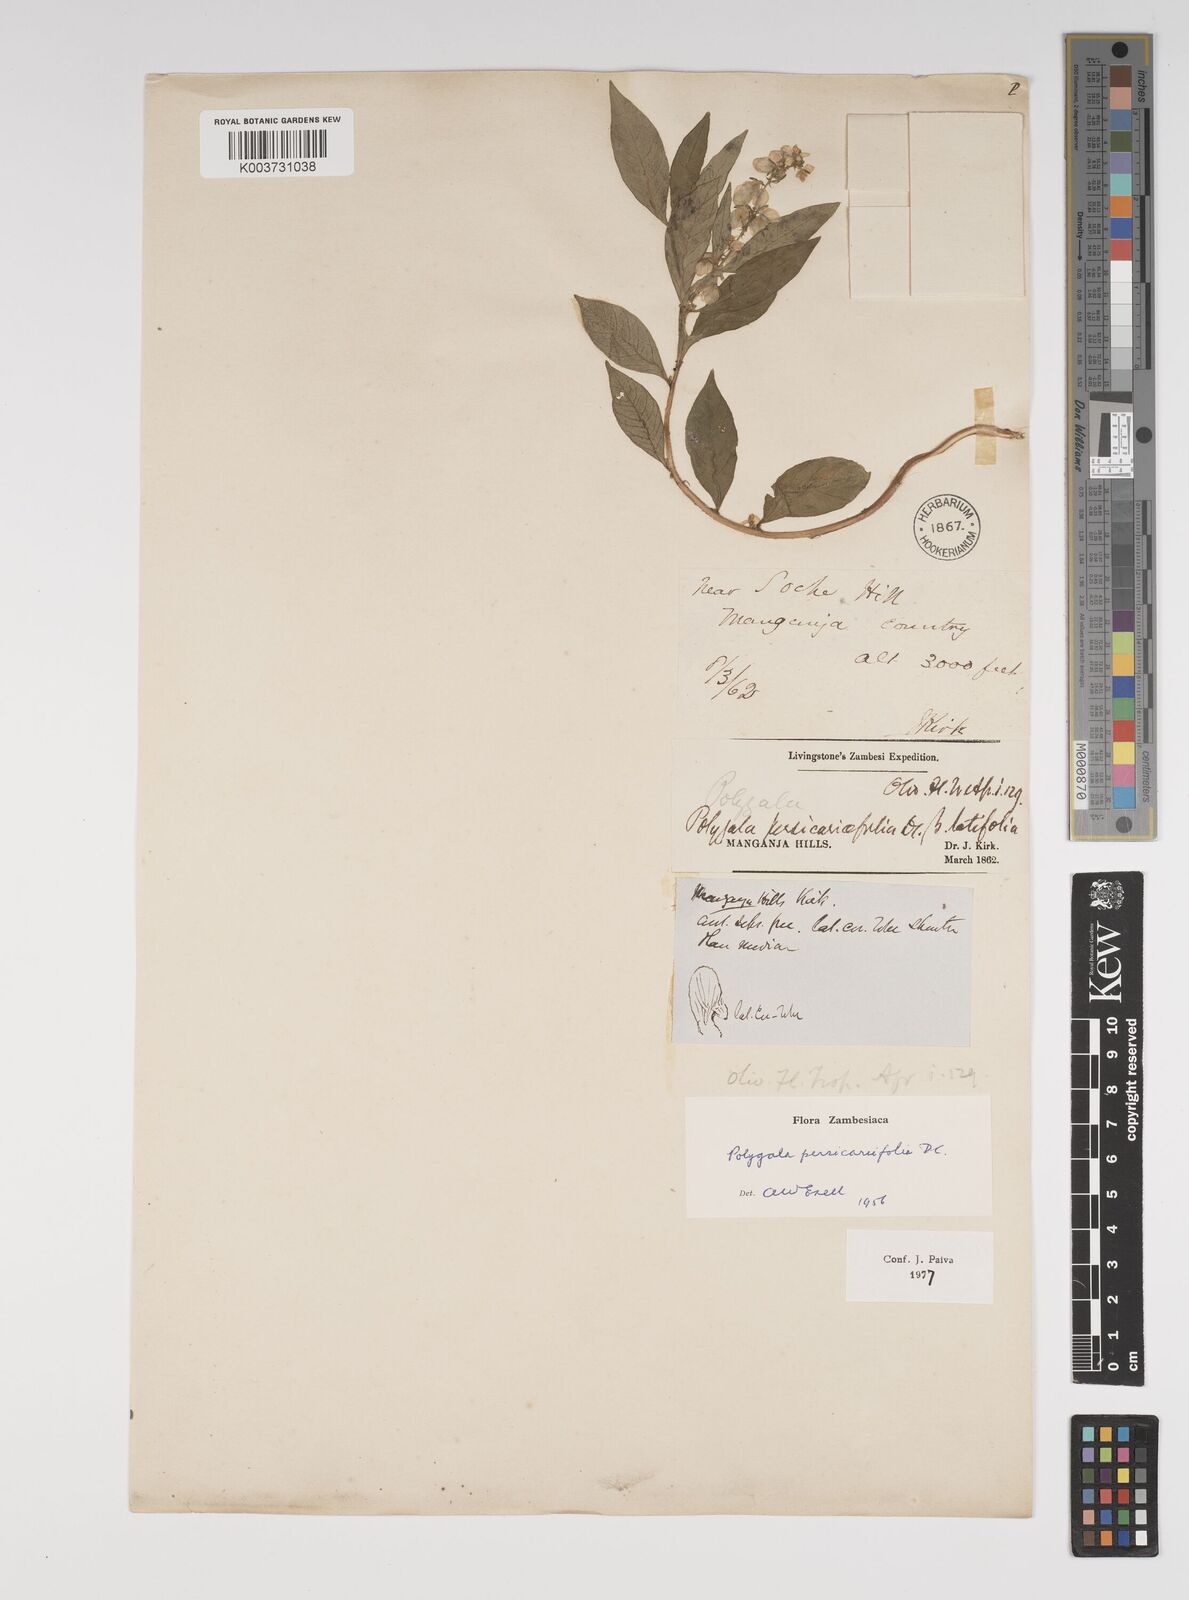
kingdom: Plantae
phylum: Tracheophyta
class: Magnoliopsida
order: Fabales
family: Polygalaceae
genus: Polygala
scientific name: Polygala persicariifolia
